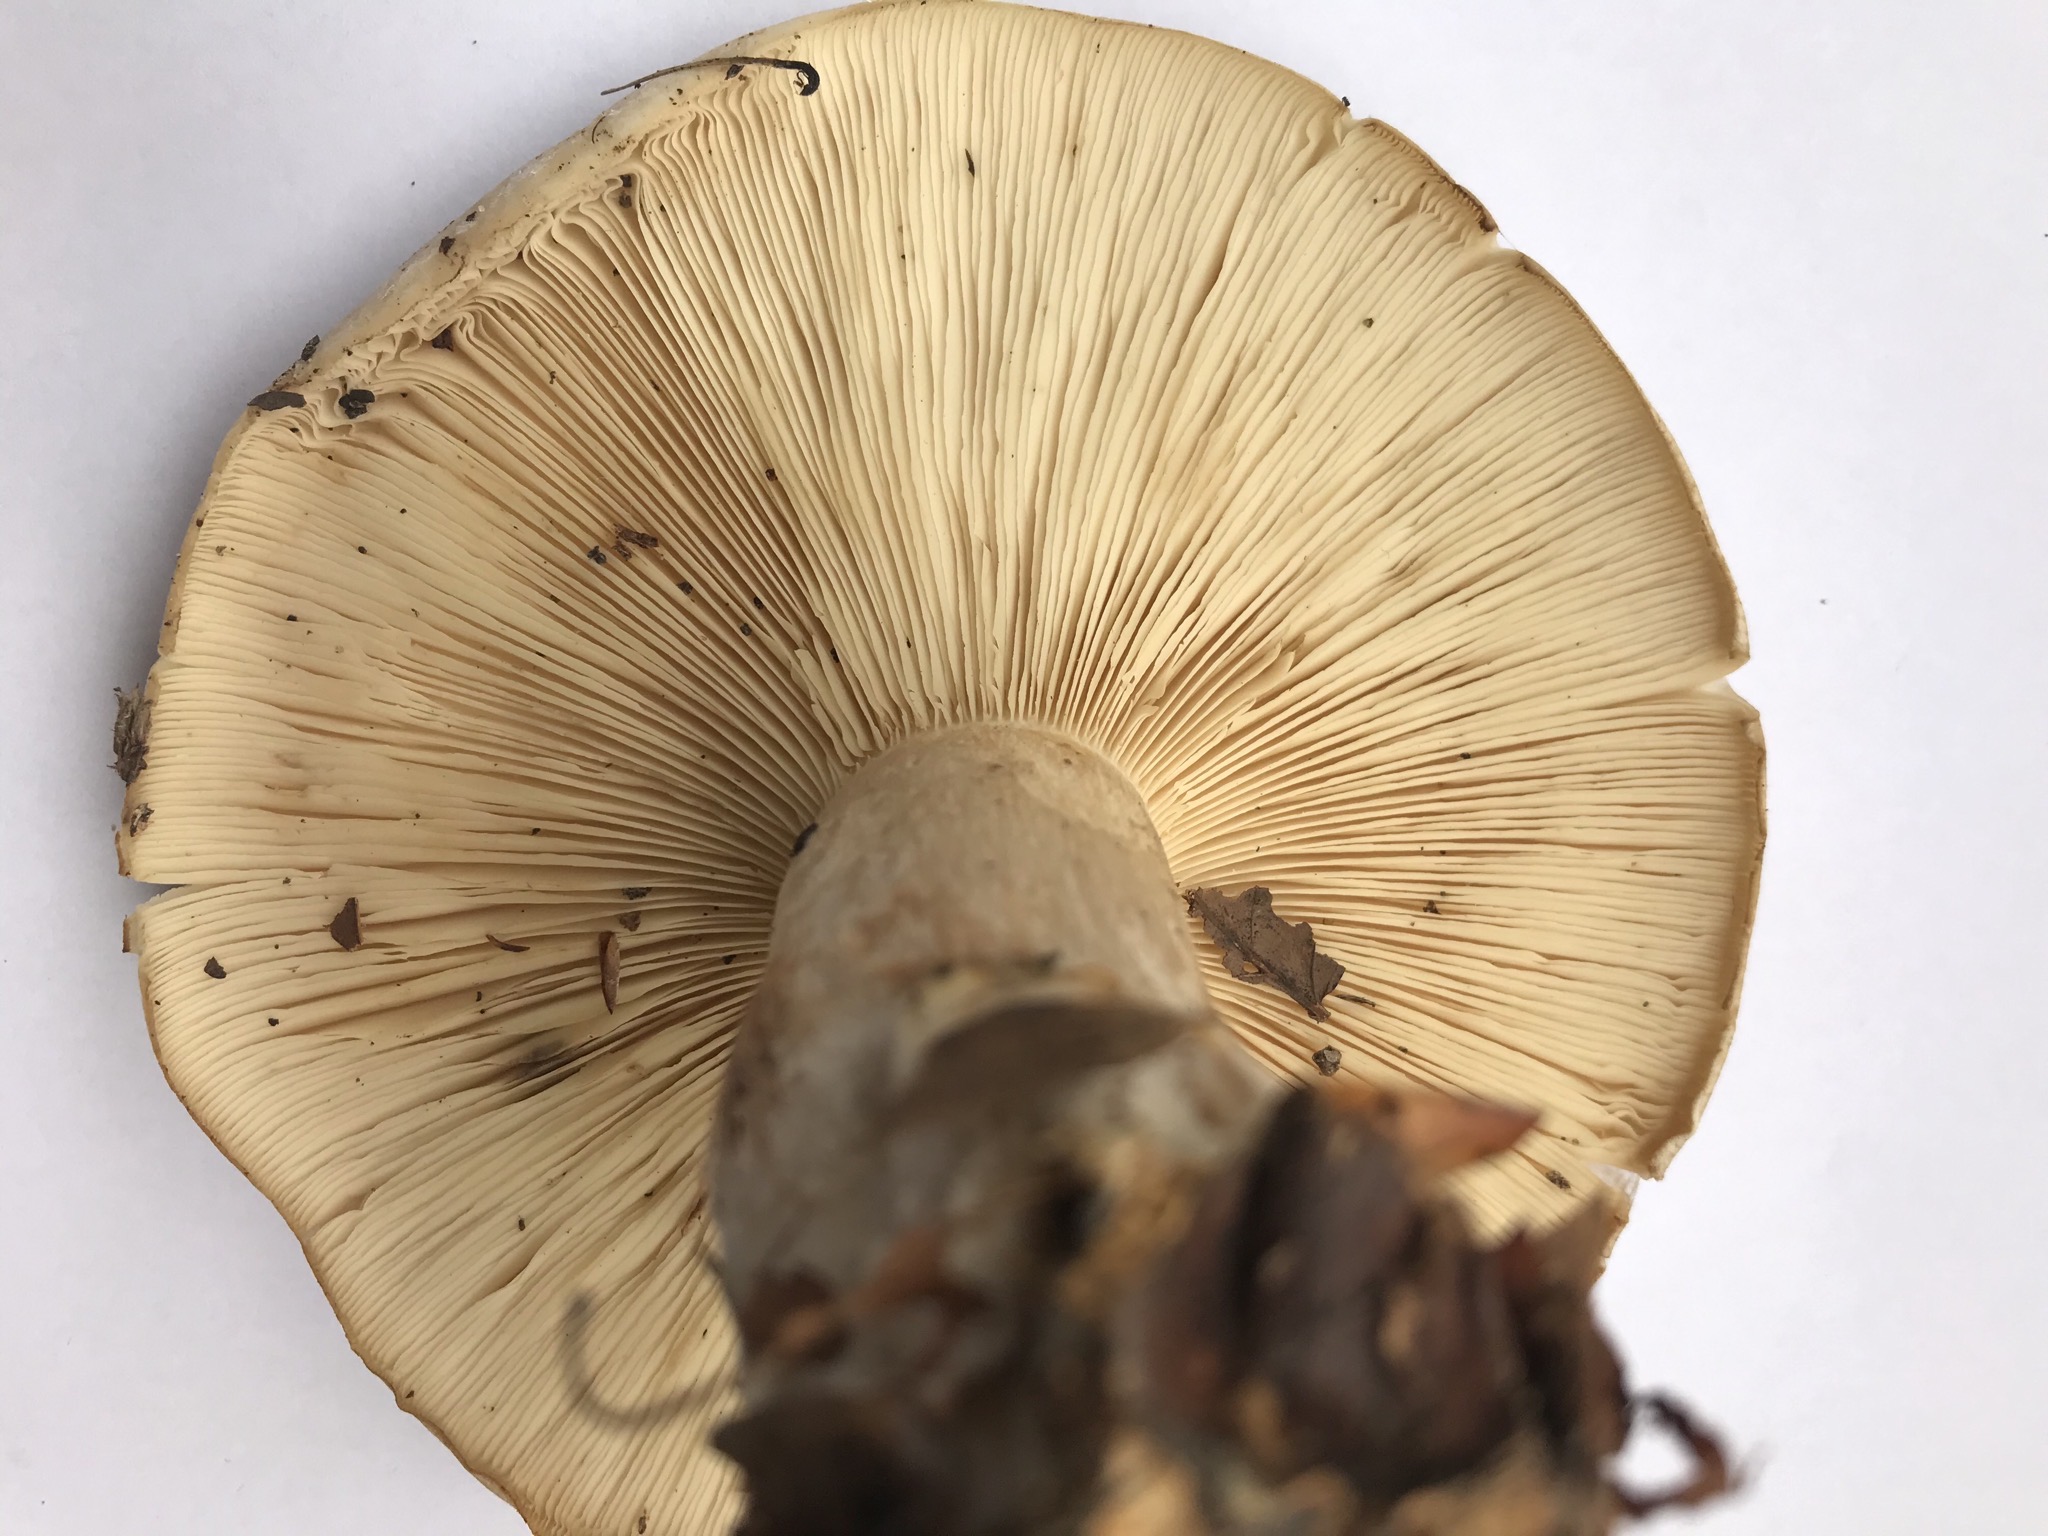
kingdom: Fungi
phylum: Basidiomycota
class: Agaricomycetes
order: Agaricales
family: Tricholomataceae
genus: Clitocybe
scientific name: Clitocybe nebularis
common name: tåge-tragthat
